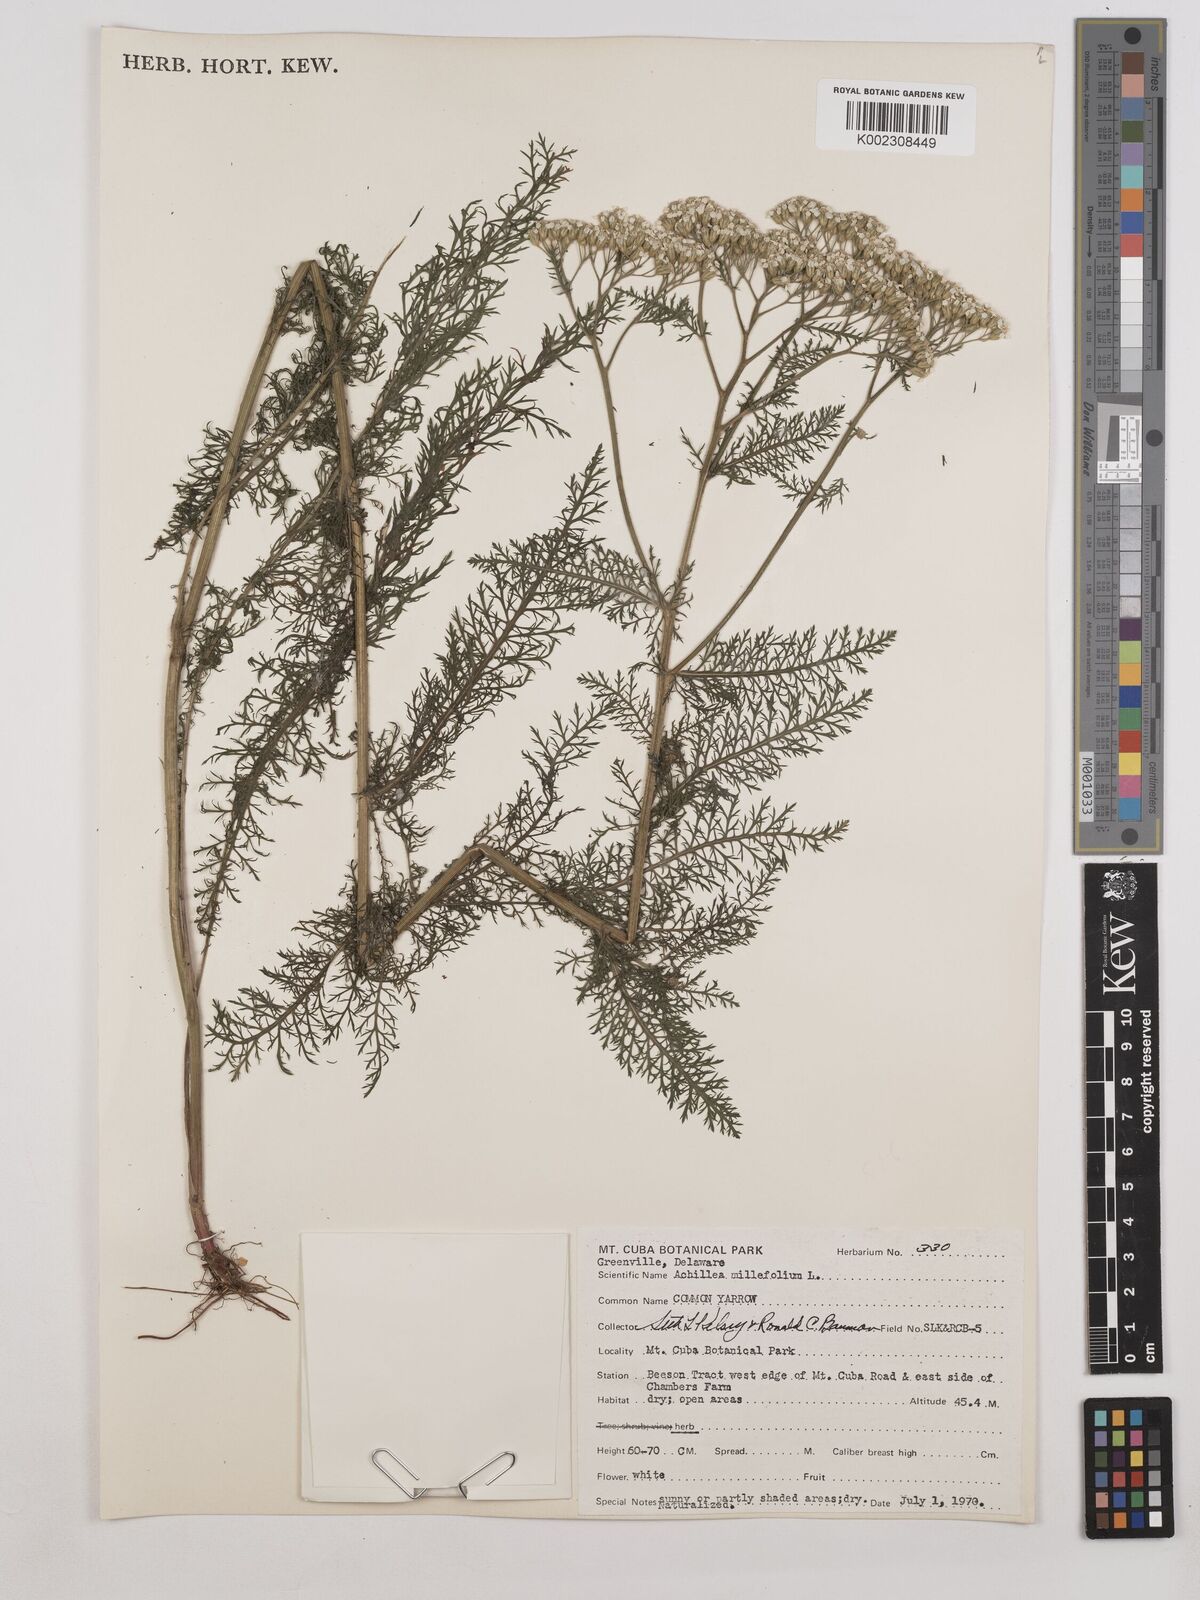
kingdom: Plantae
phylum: Tracheophyta
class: Magnoliopsida
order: Asterales
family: Asteraceae
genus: Achillea
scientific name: Achillea millefolium
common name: Yarrow
